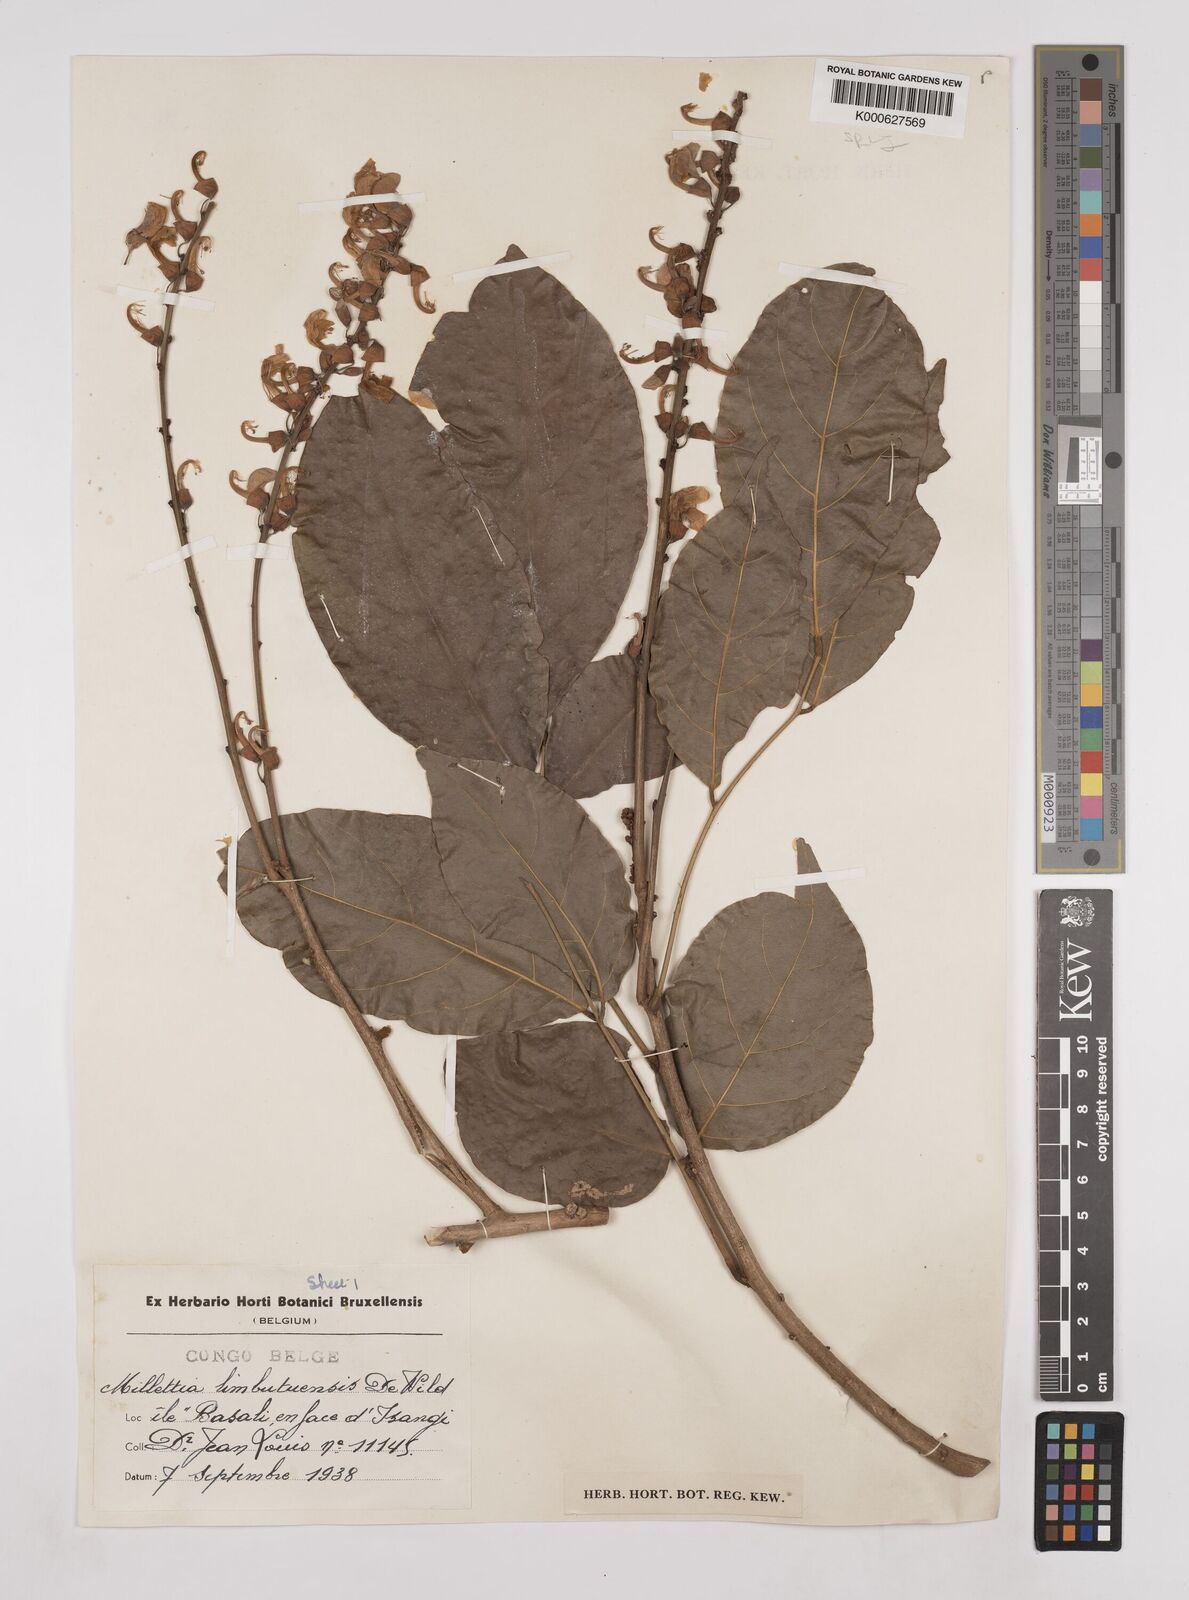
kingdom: Plantae
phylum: Tracheophyta
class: Magnoliopsida
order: Fabales
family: Fabaceae
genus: Millettia
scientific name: Millettia limbutuensis
